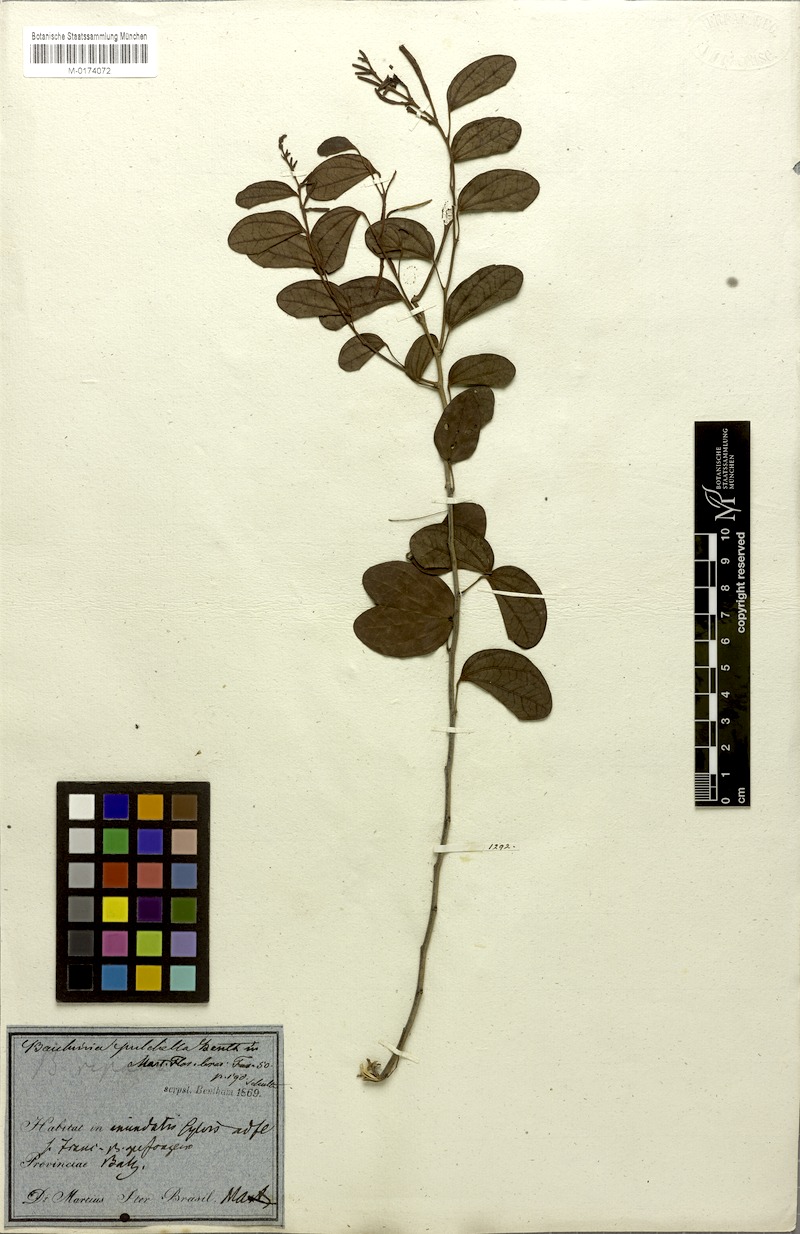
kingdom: Plantae
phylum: Tracheophyta
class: Magnoliopsida
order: Fabales
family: Fabaceae
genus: Bauhinia
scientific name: Bauhinia pulchella
